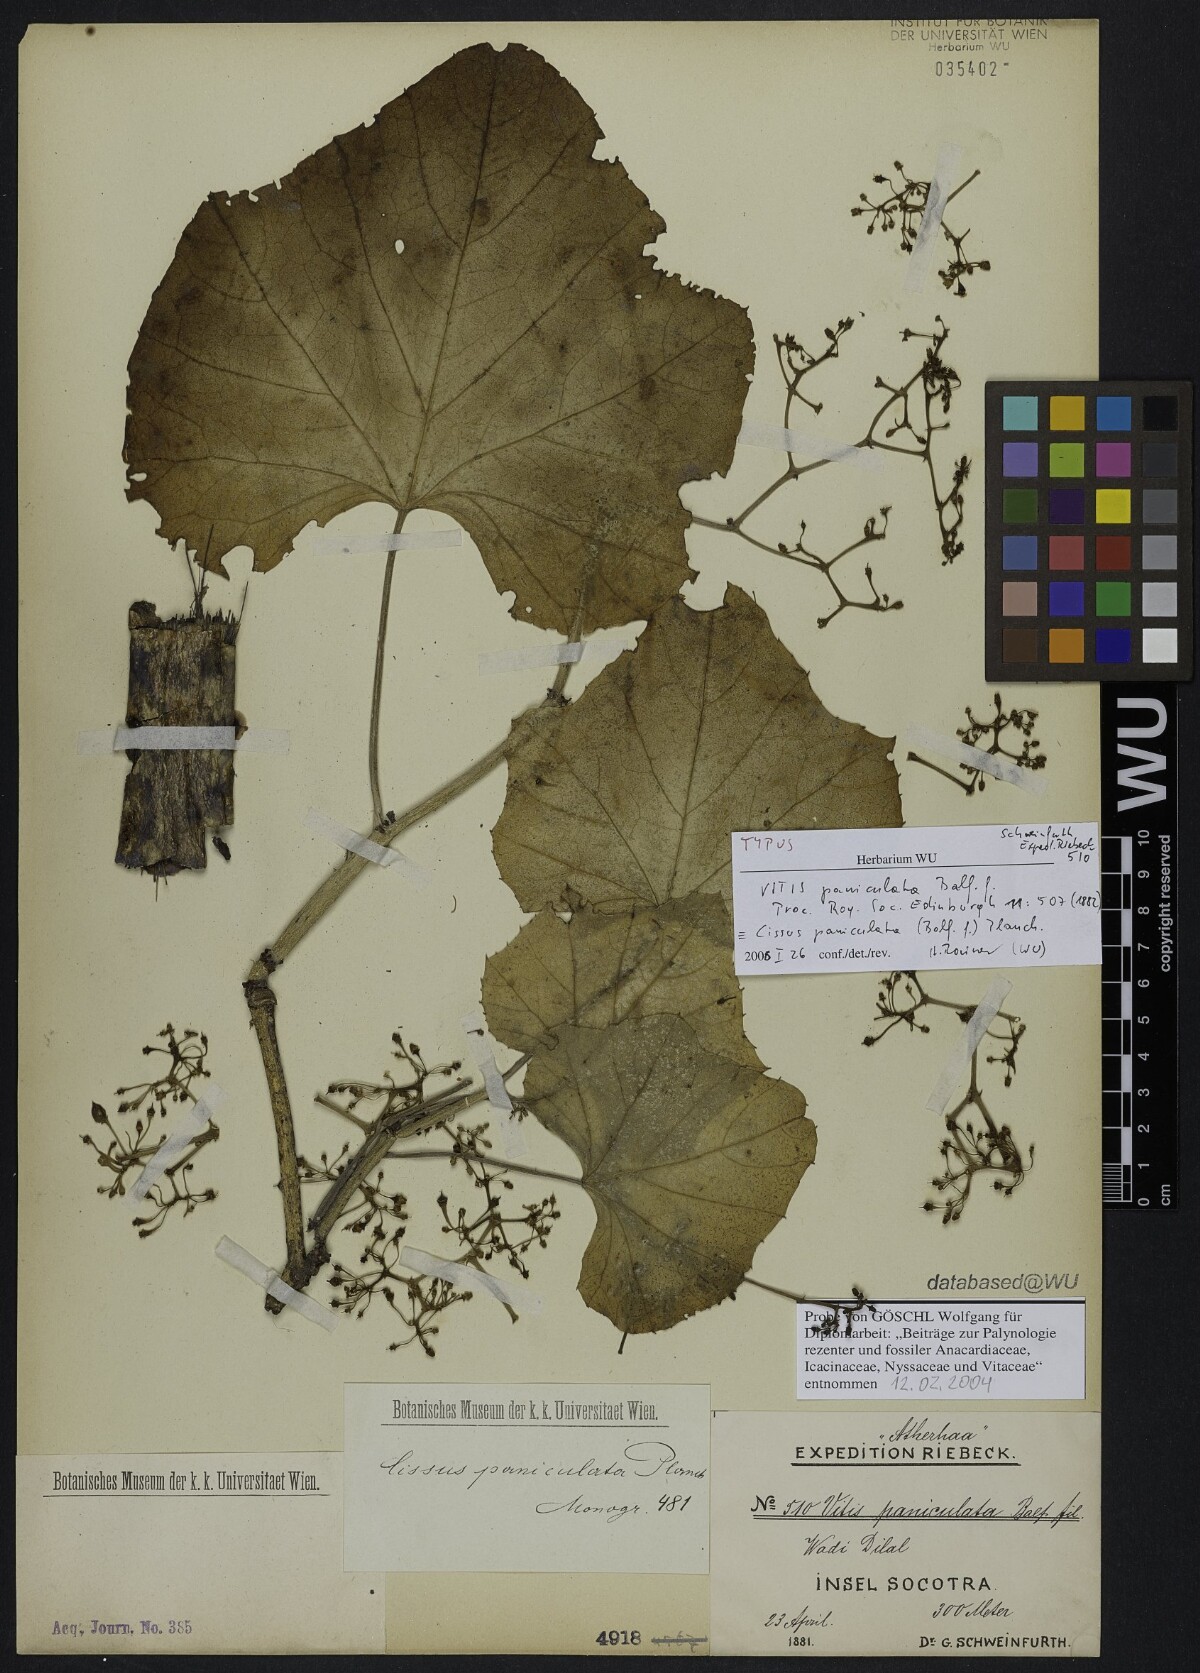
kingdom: Plantae
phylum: Tracheophyta
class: Magnoliopsida
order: Vitales
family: Vitaceae
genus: Cissus
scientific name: Cissus paniculata
